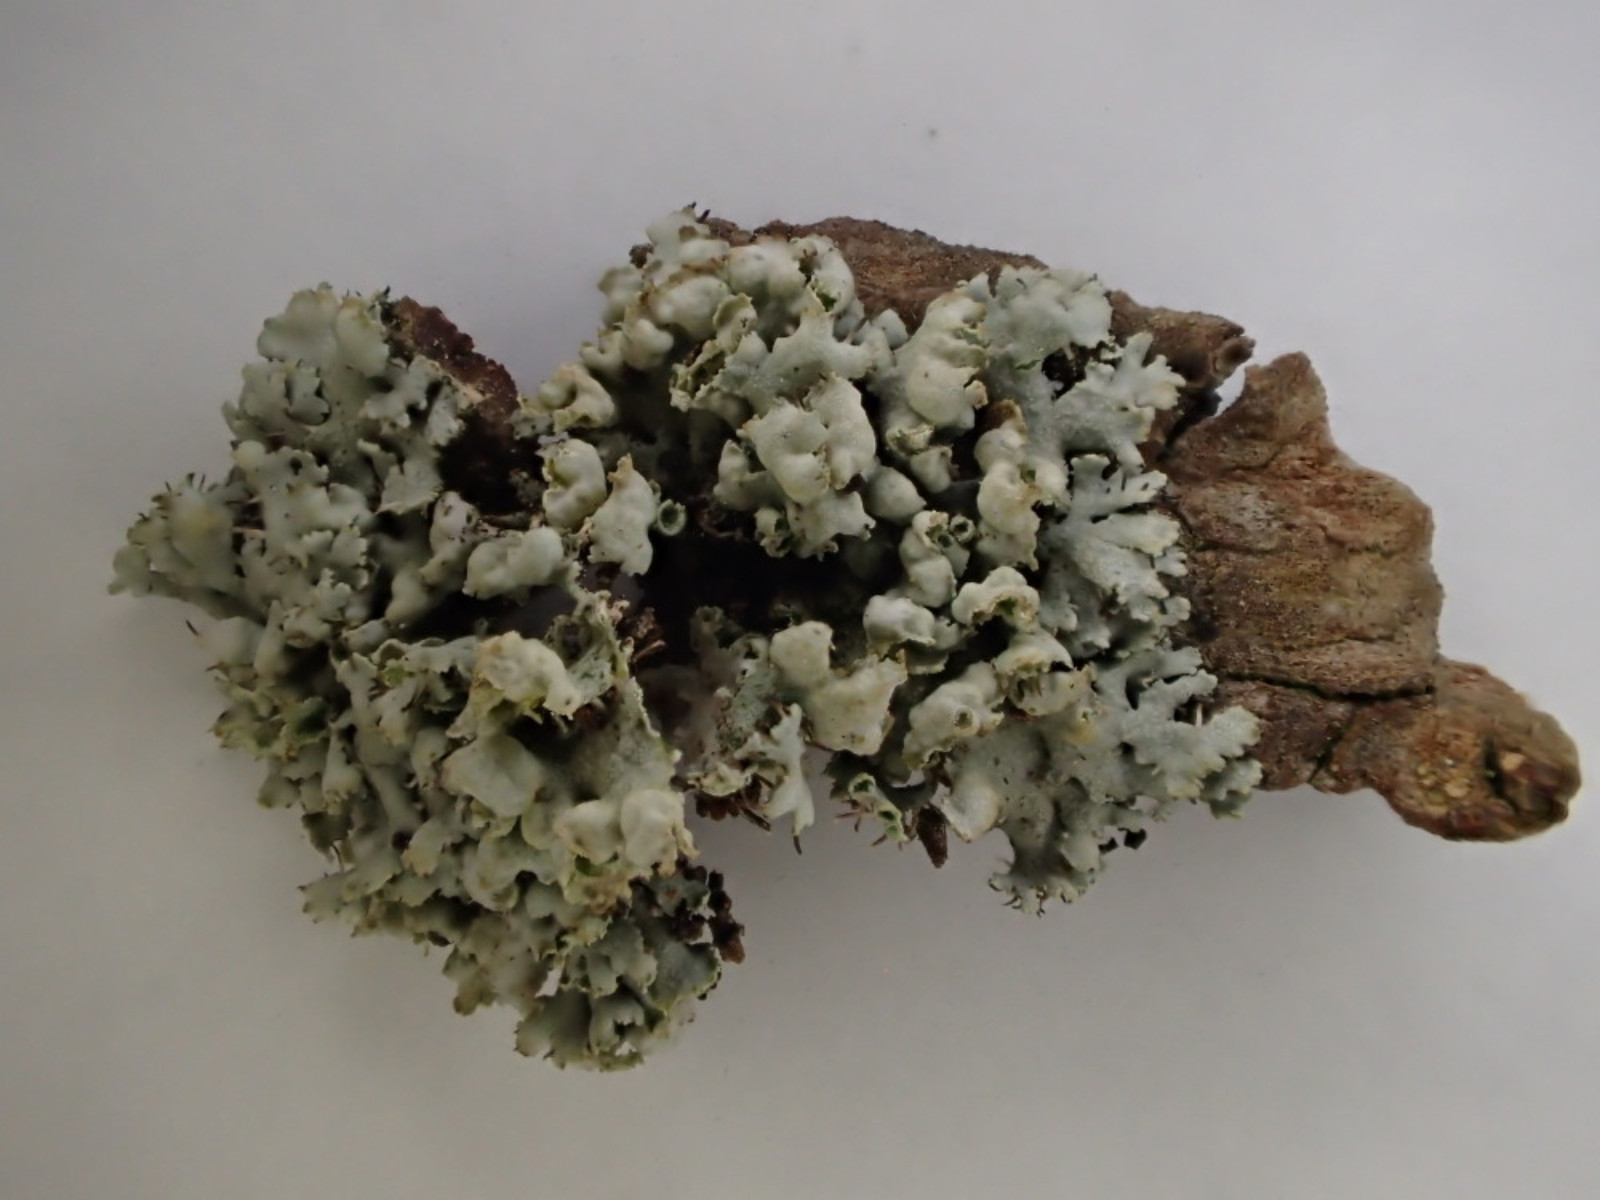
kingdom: Fungi
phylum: Ascomycota
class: Lecanoromycetes
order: Caliciales
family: Physciaceae
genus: Physcia
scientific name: Physcia adscendens
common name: hætte-rosetlav
